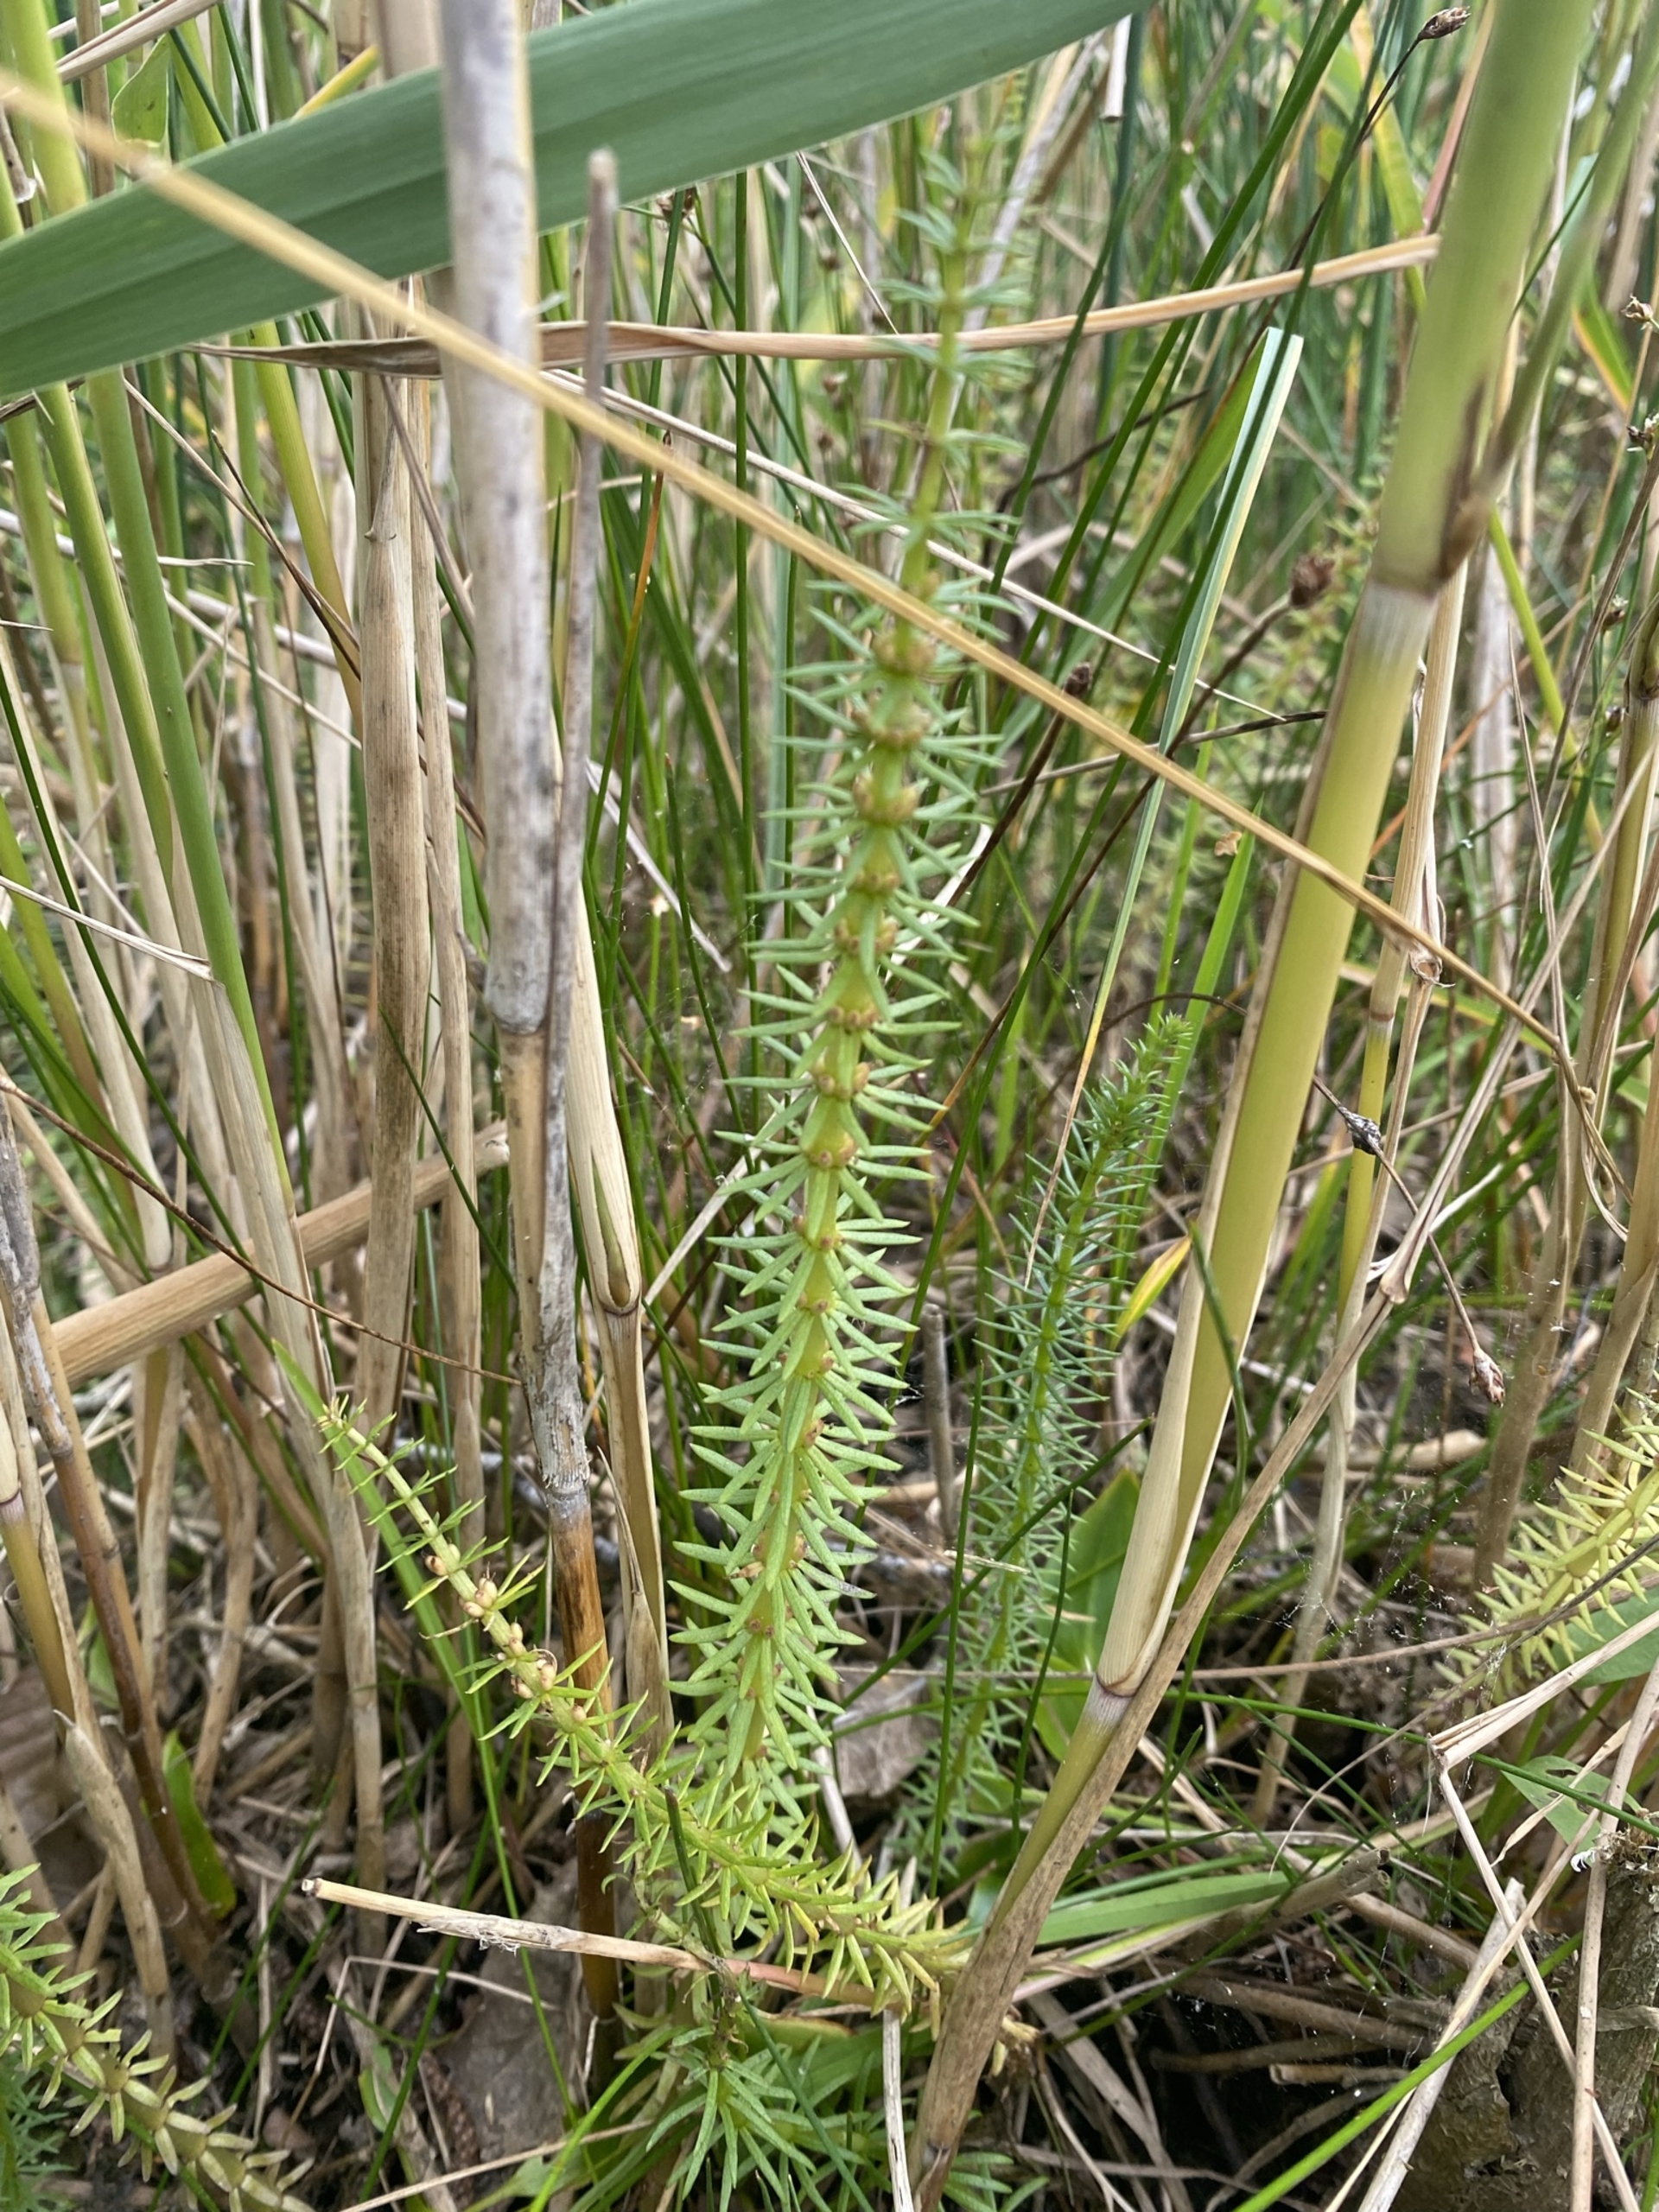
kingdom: Plantae
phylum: Tracheophyta
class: Magnoliopsida
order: Lamiales
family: Plantaginaceae
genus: Hippuris
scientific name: Hippuris vulgaris
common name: Vandspir
